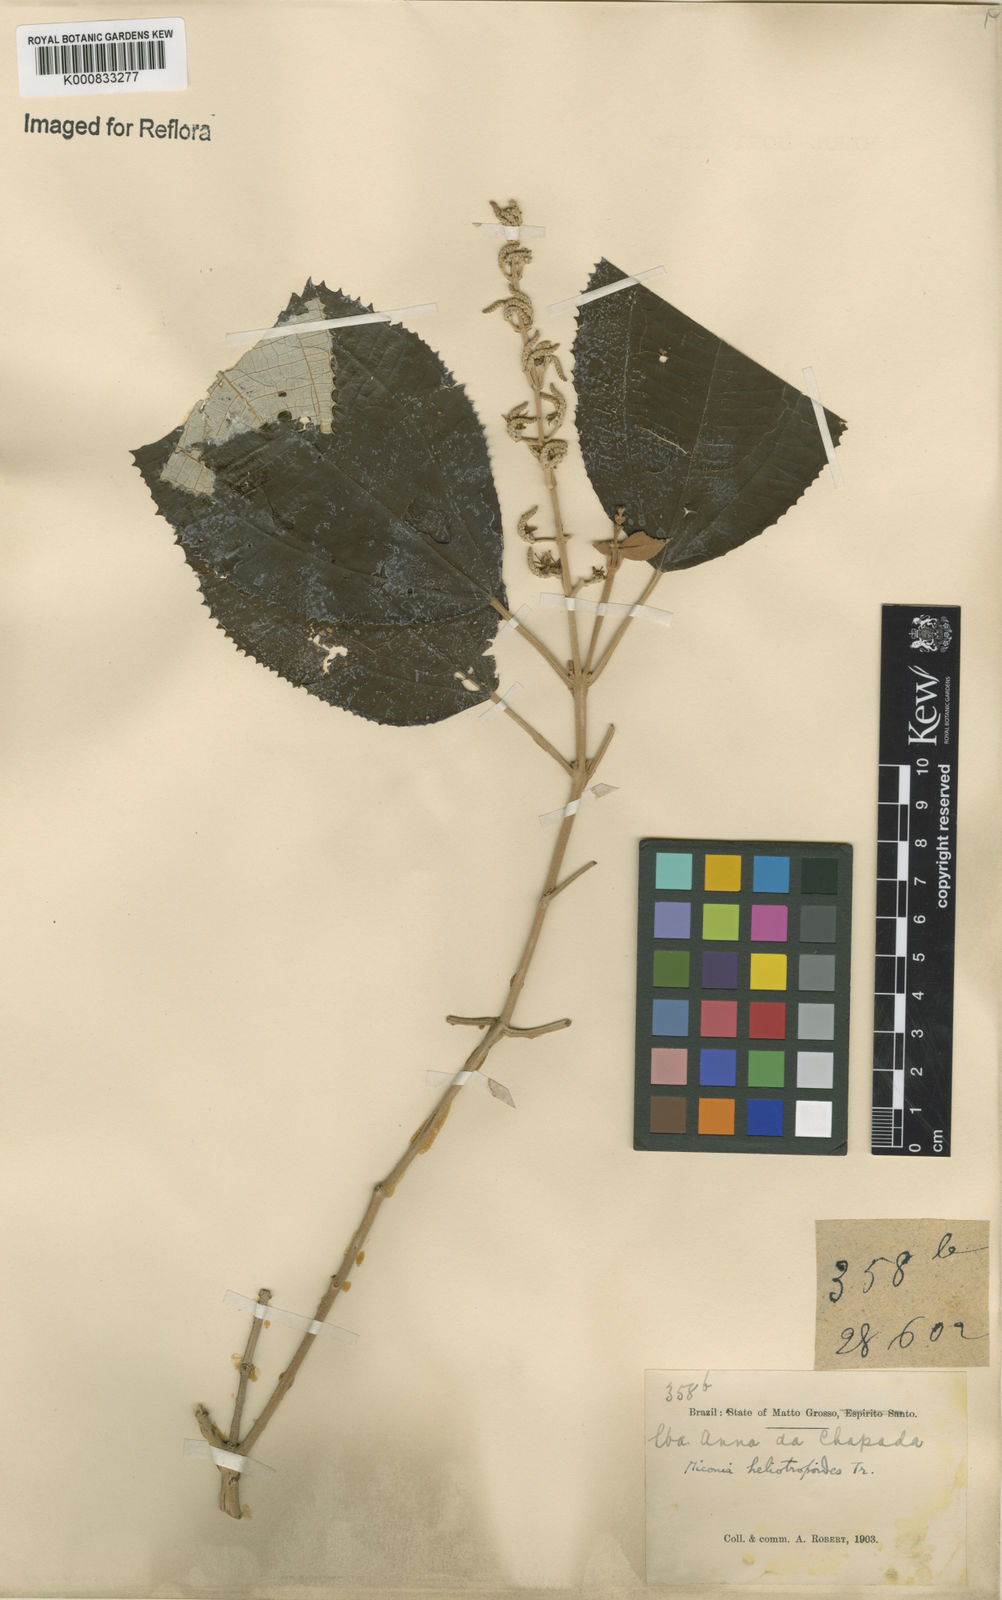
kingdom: Plantae
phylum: Tracheophyta
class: Magnoliopsida
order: Myrtales
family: Melastomataceae
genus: Miconia
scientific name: Miconia heliotropoides
